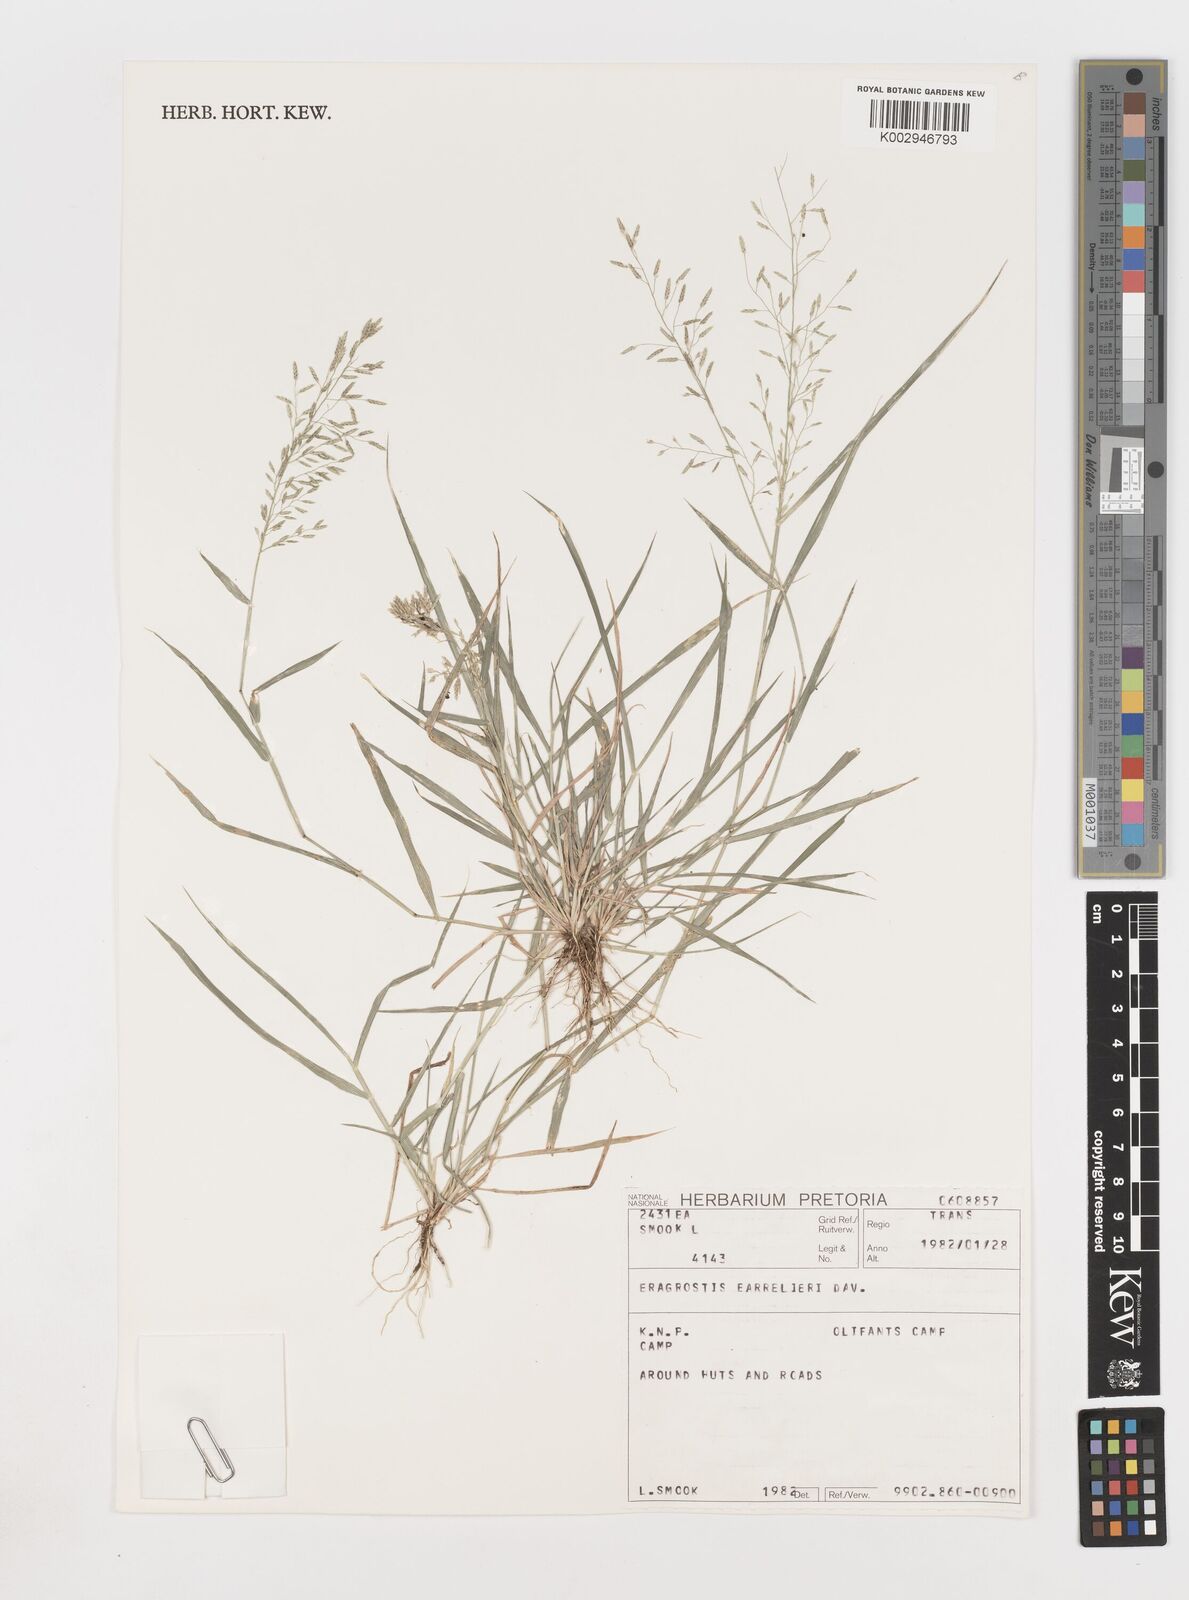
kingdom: Plantae
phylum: Tracheophyta
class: Liliopsida
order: Poales
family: Poaceae
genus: Eragrostis
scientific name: Eragrostis barrelieri
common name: Mediterranean lovegrass
